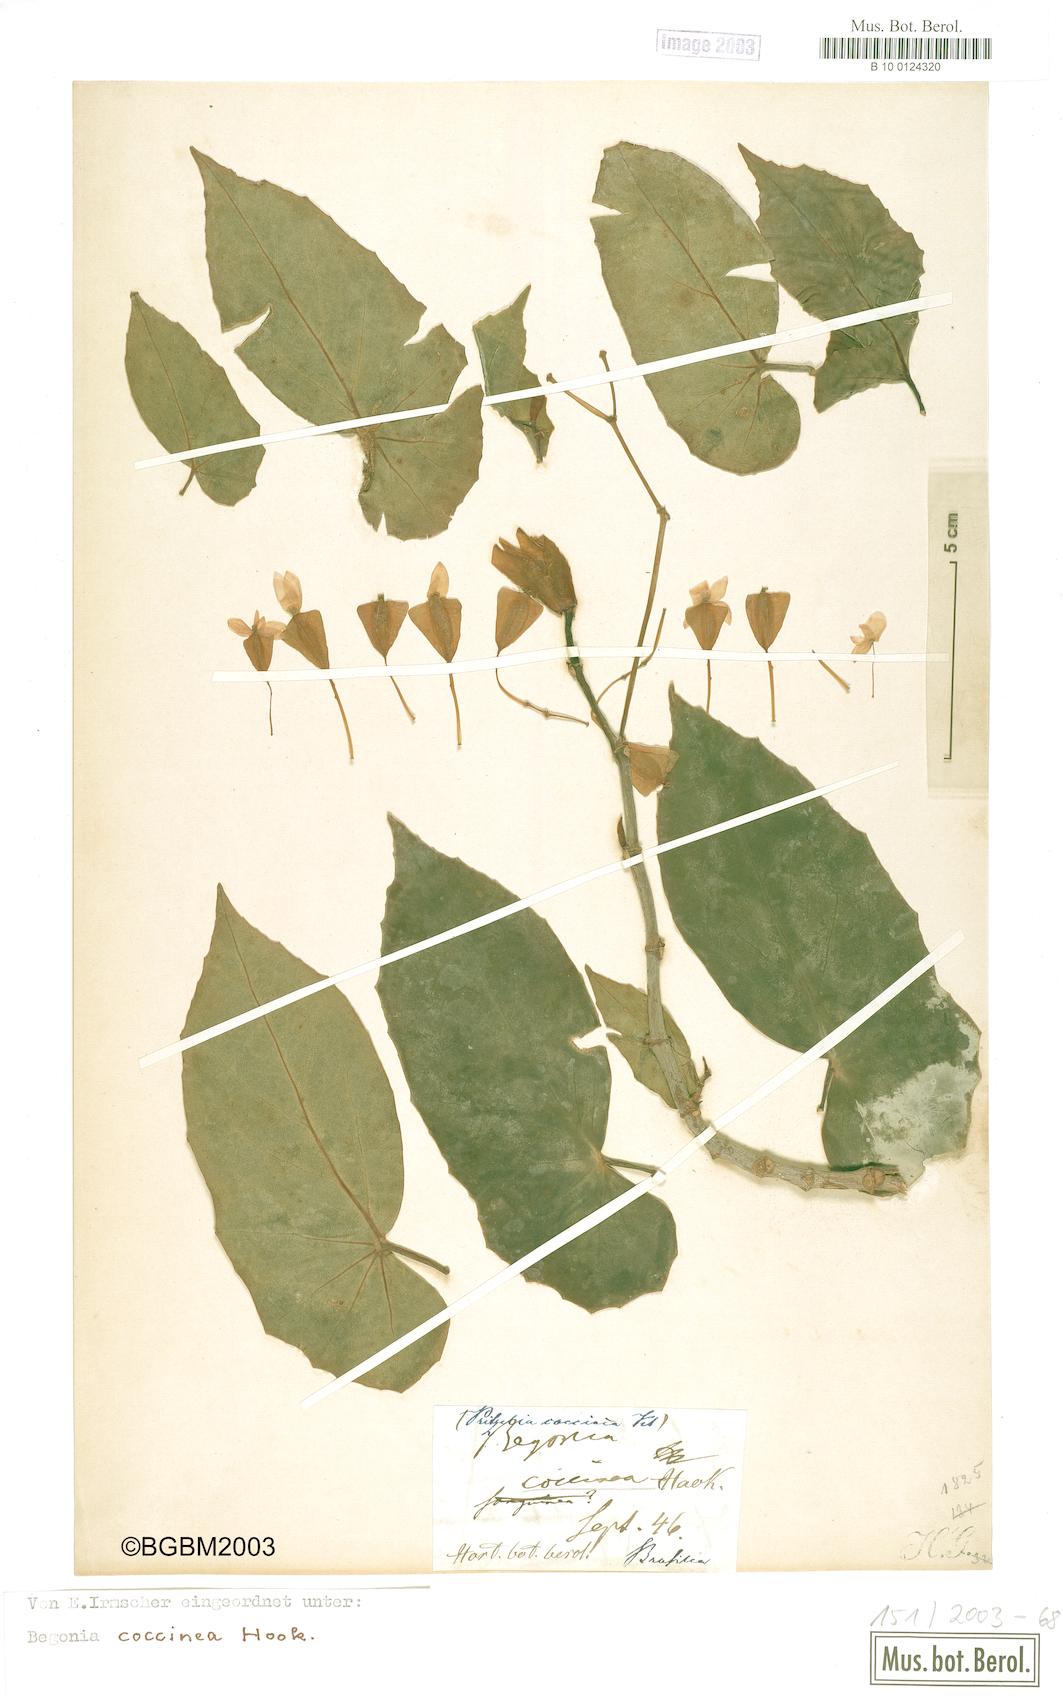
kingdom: Plantae
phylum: Tracheophyta
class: Magnoliopsida
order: Cucurbitales
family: Begoniaceae
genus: Begonia
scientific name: Begonia coccinea
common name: Angel-wing begonia
